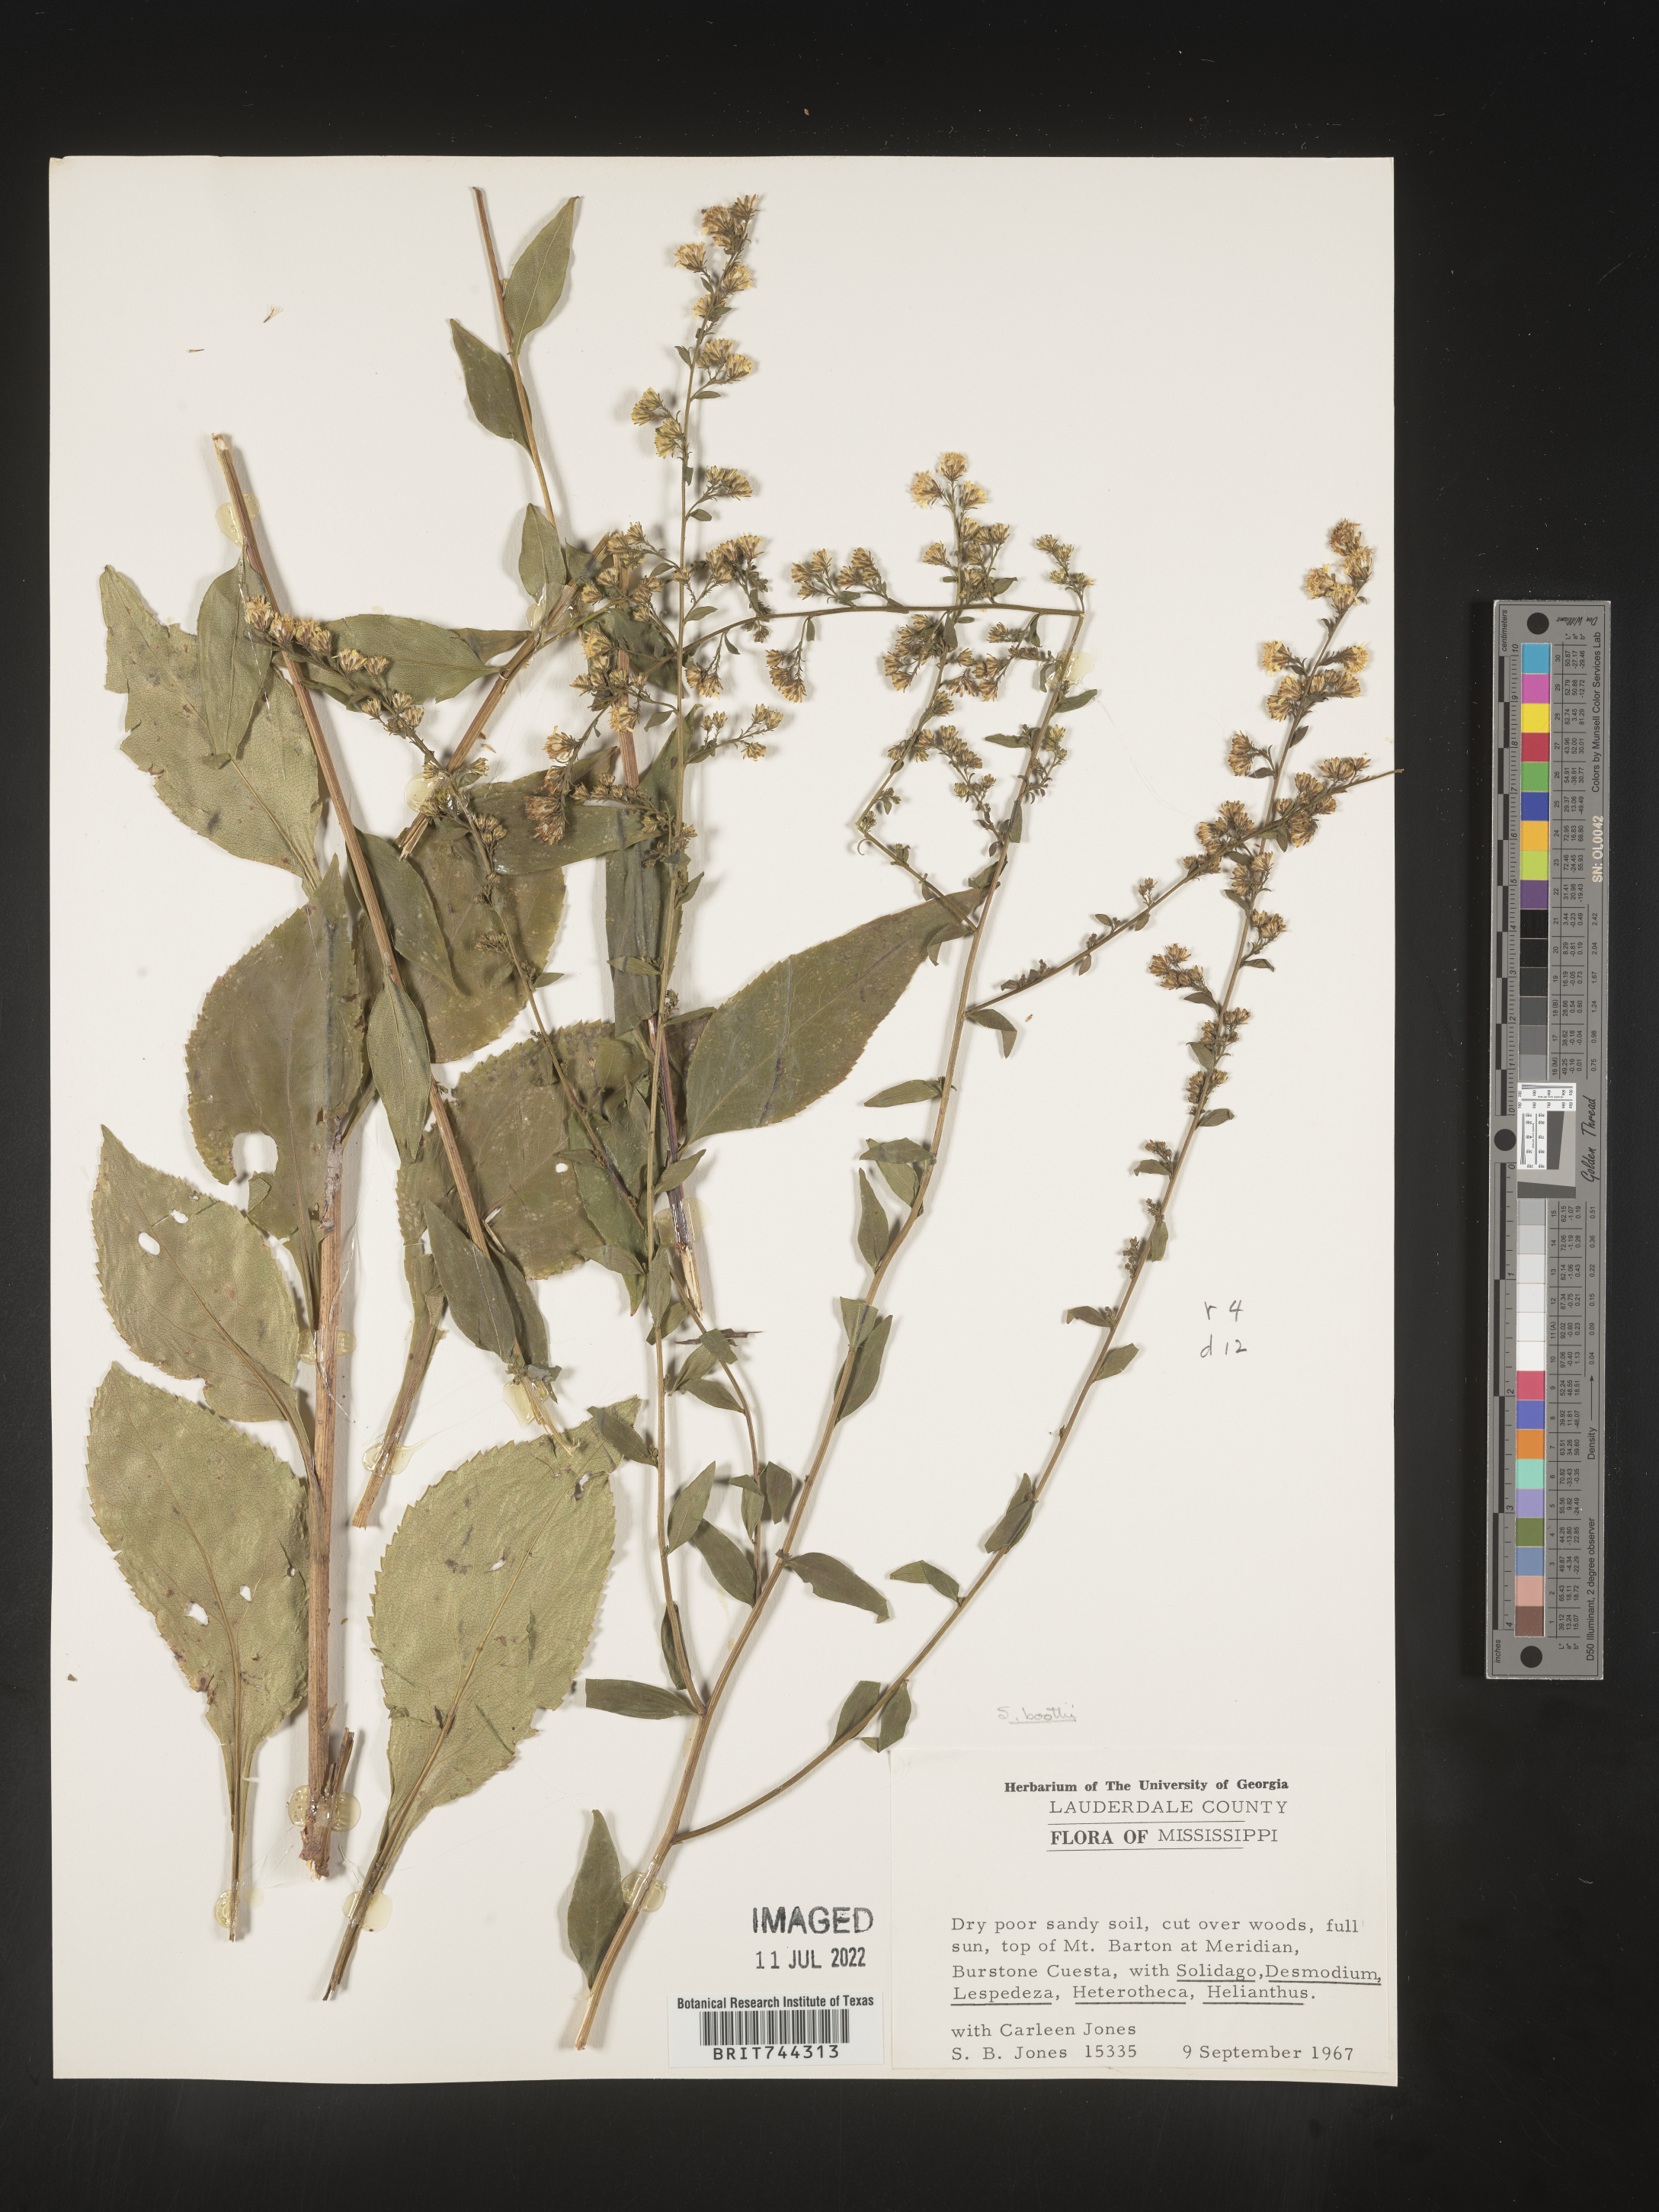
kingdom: Plantae
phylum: Tracheophyta
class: Magnoliopsida
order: Asterales
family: Asteraceae
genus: Solidago
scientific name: Solidago arguta
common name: Atlantic goldenrod
